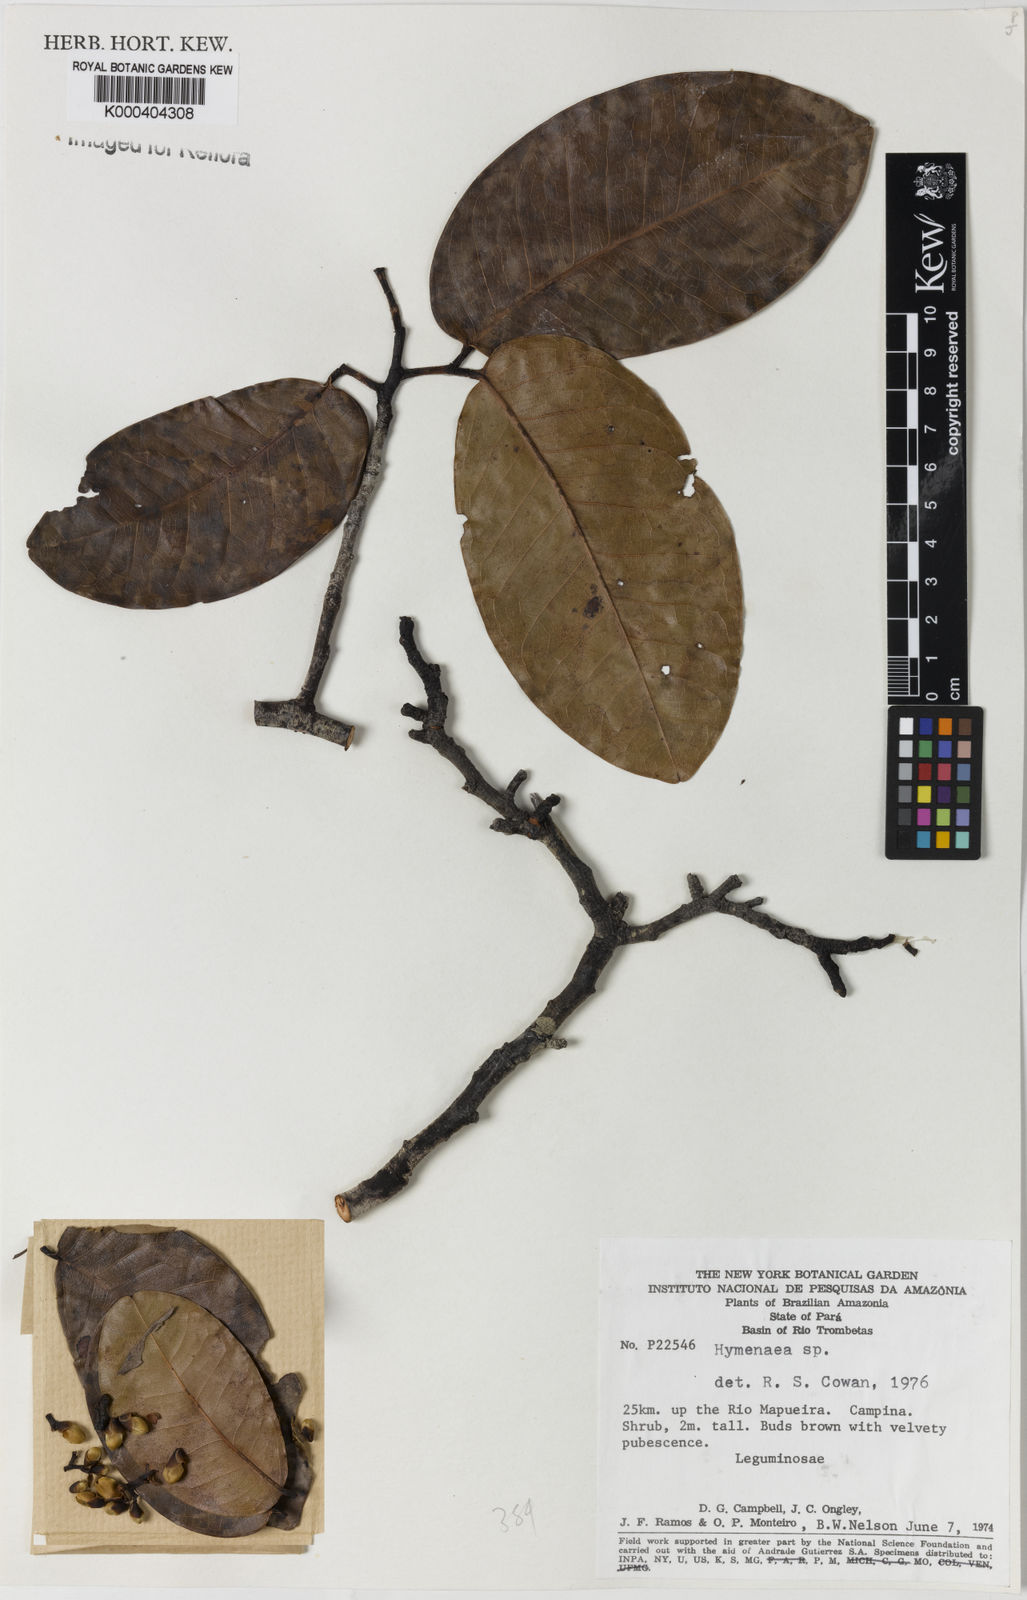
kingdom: Plantae
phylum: Tracheophyta
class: Magnoliopsida
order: Fabales
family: Fabaceae
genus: Hymenaea
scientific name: Hymenaea
